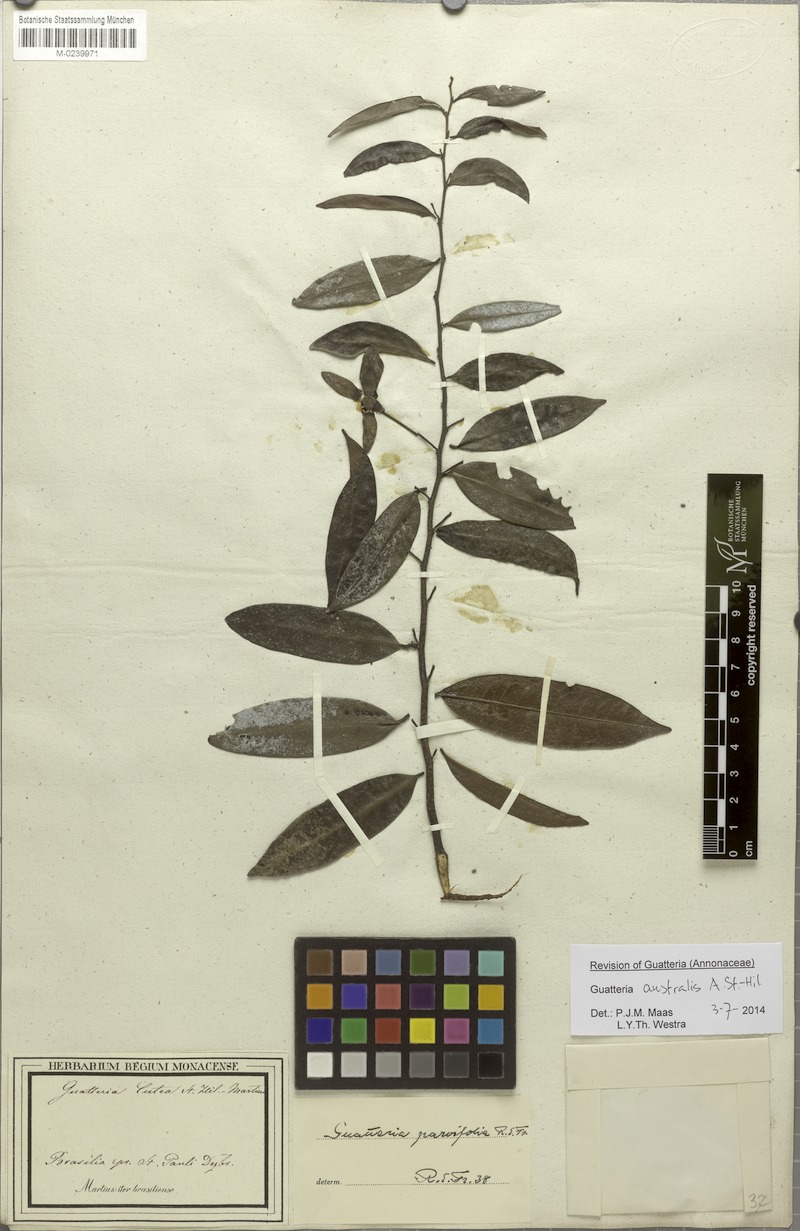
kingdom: Plantae
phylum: Tracheophyta
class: Magnoliopsida
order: Magnoliales
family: Annonaceae
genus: Guatteria
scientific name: Guatteria australis
